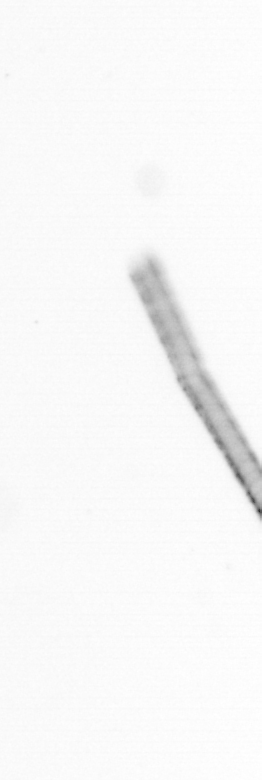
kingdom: Chromista
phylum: Ochrophyta
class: Bacillariophyceae
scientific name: Bacillariophyceae
